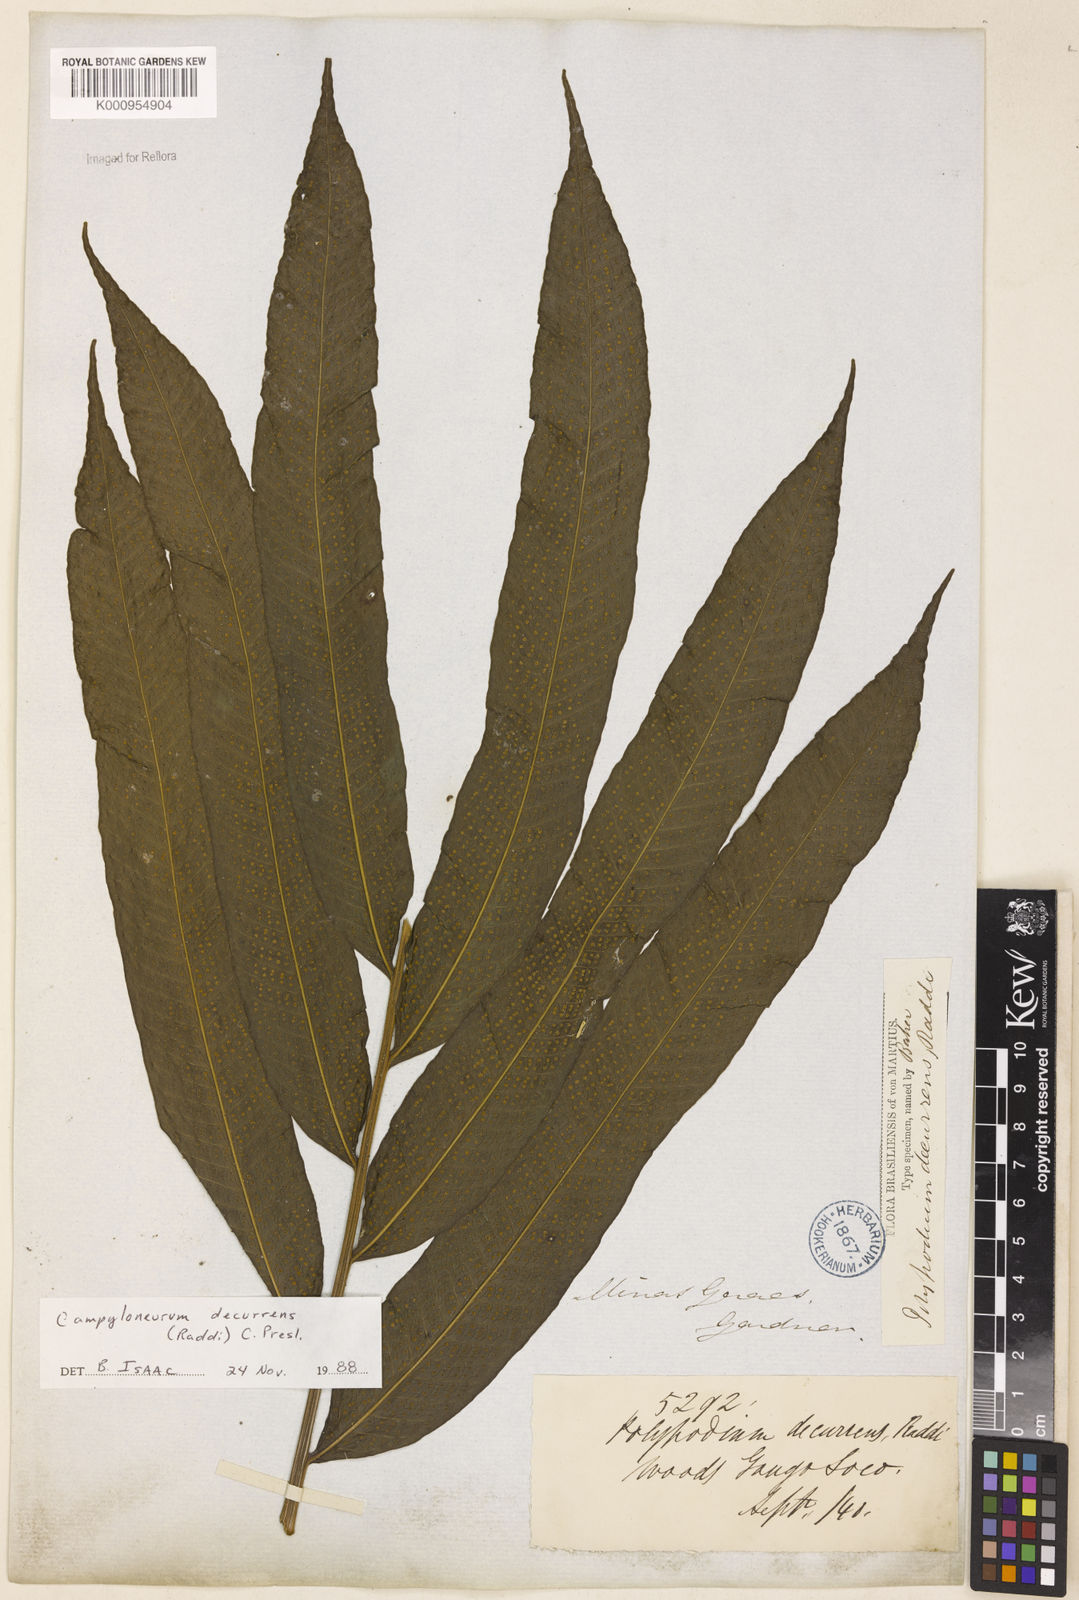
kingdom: Plantae
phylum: Tracheophyta
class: Polypodiopsida
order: Polypodiales
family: Polypodiaceae
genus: Campyloneurum
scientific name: Campyloneurum decurrens
